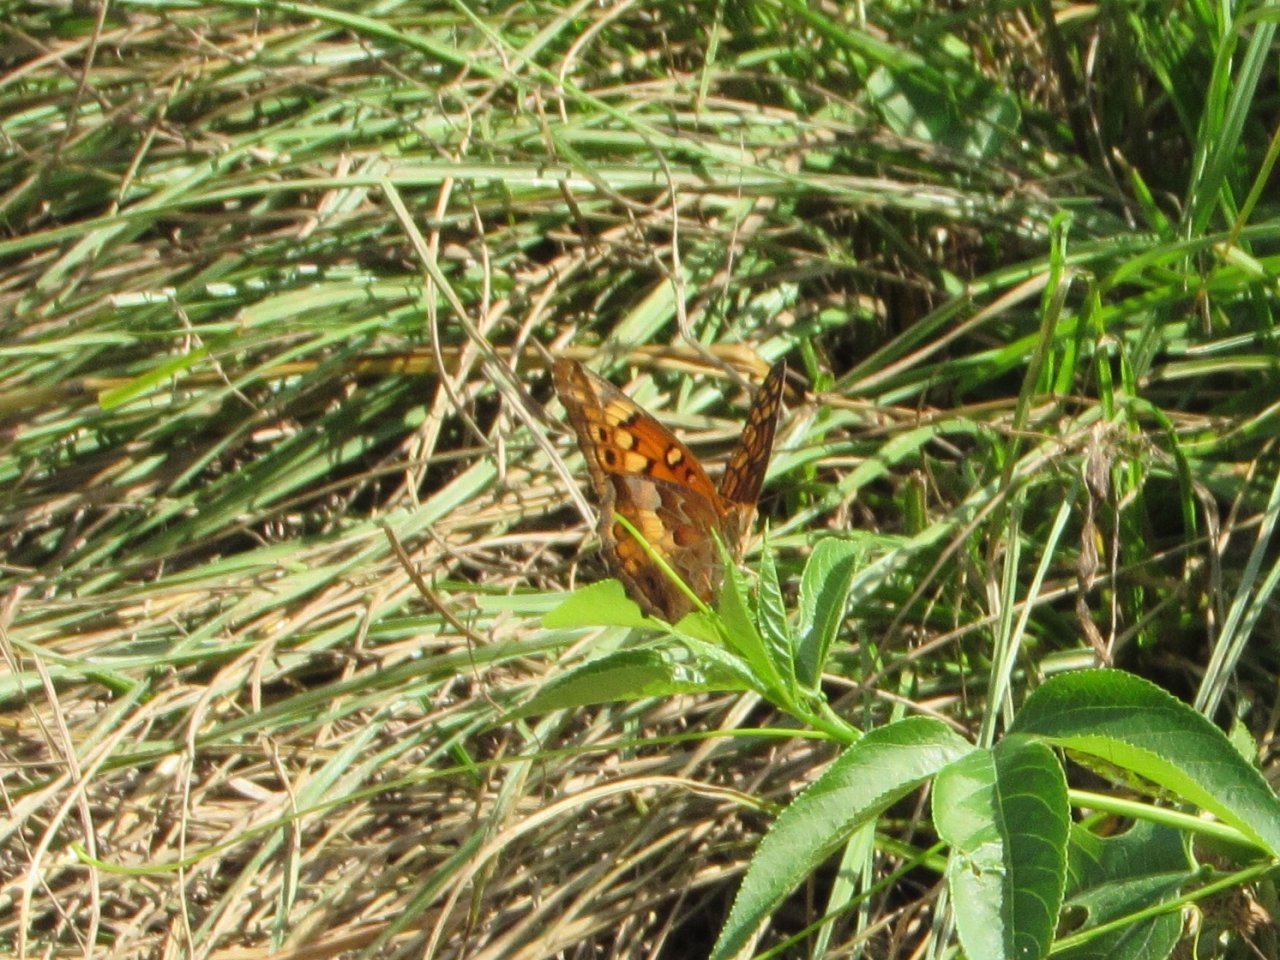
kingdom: Animalia
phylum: Arthropoda
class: Insecta
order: Lepidoptera
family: Nymphalidae
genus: Euptoieta
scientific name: Euptoieta claudia
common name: Variegated Fritillary
